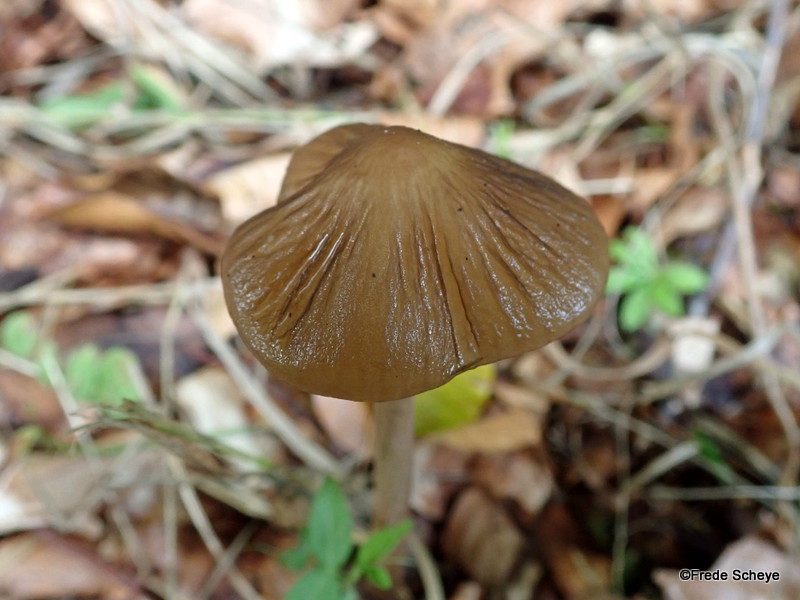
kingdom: Fungi
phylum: Basidiomycota
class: Agaricomycetes
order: Agaricales
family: Physalacriaceae
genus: Hymenopellis
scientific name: Hymenopellis radicata
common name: almindelig pælerodshat
